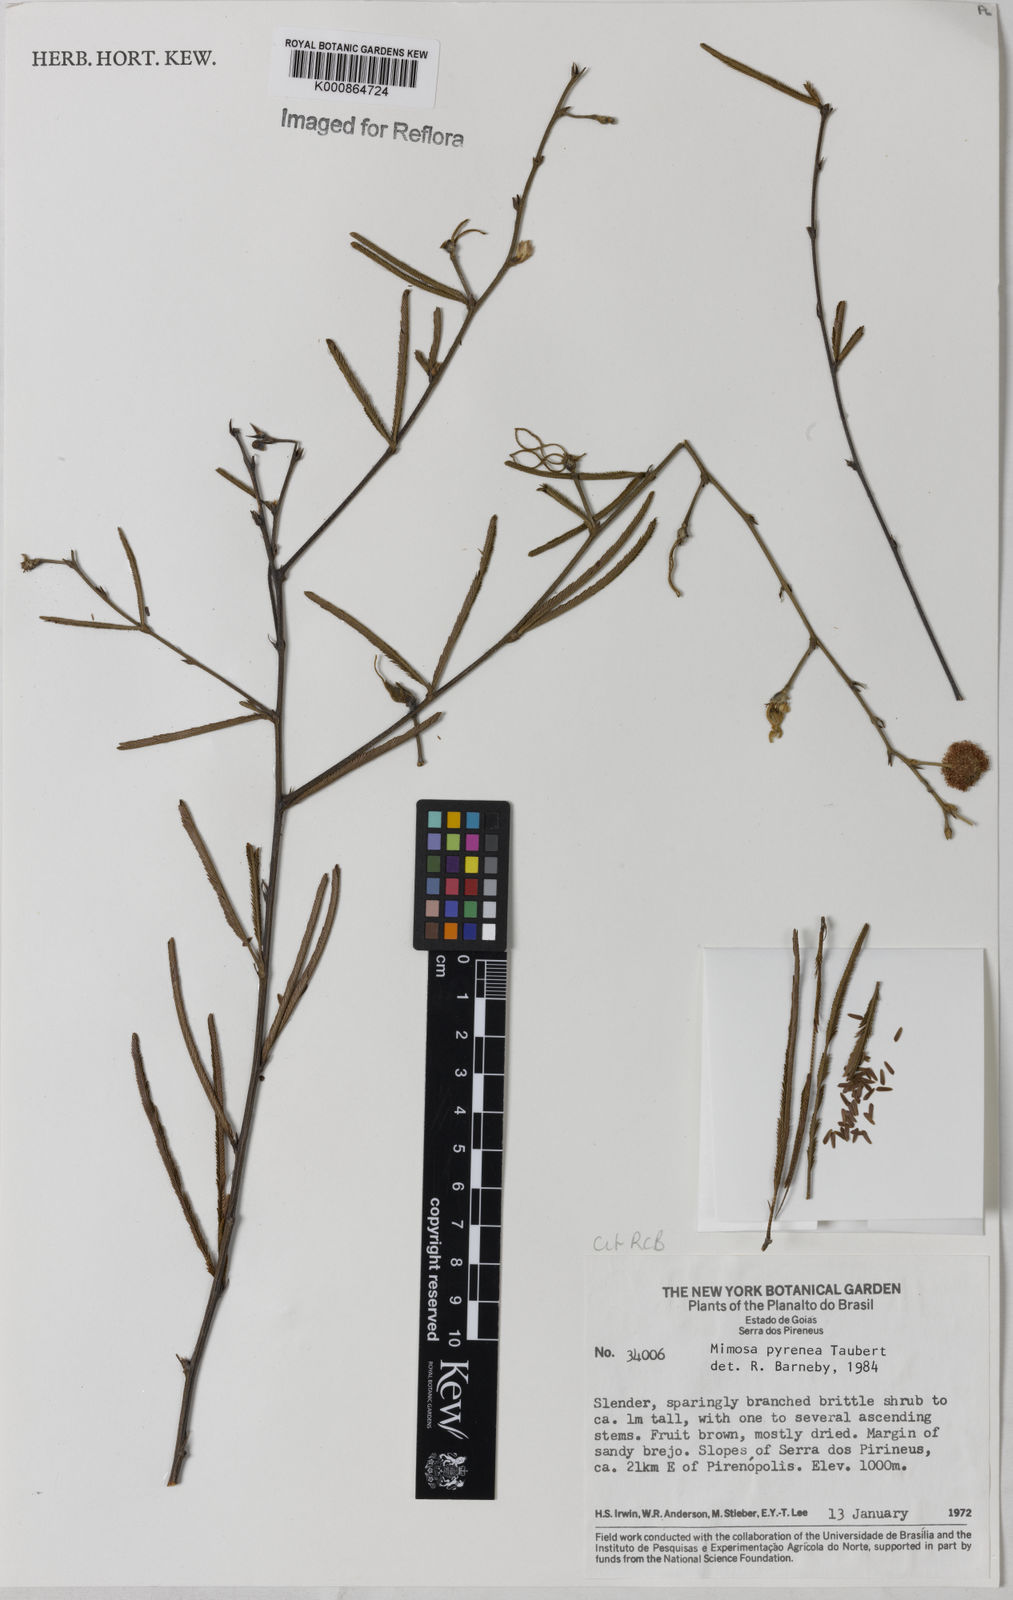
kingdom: Plantae
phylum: Tracheophyta
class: Magnoliopsida
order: Fabales
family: Fabaceae
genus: Mimosa
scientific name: Mimosa pyrenea
